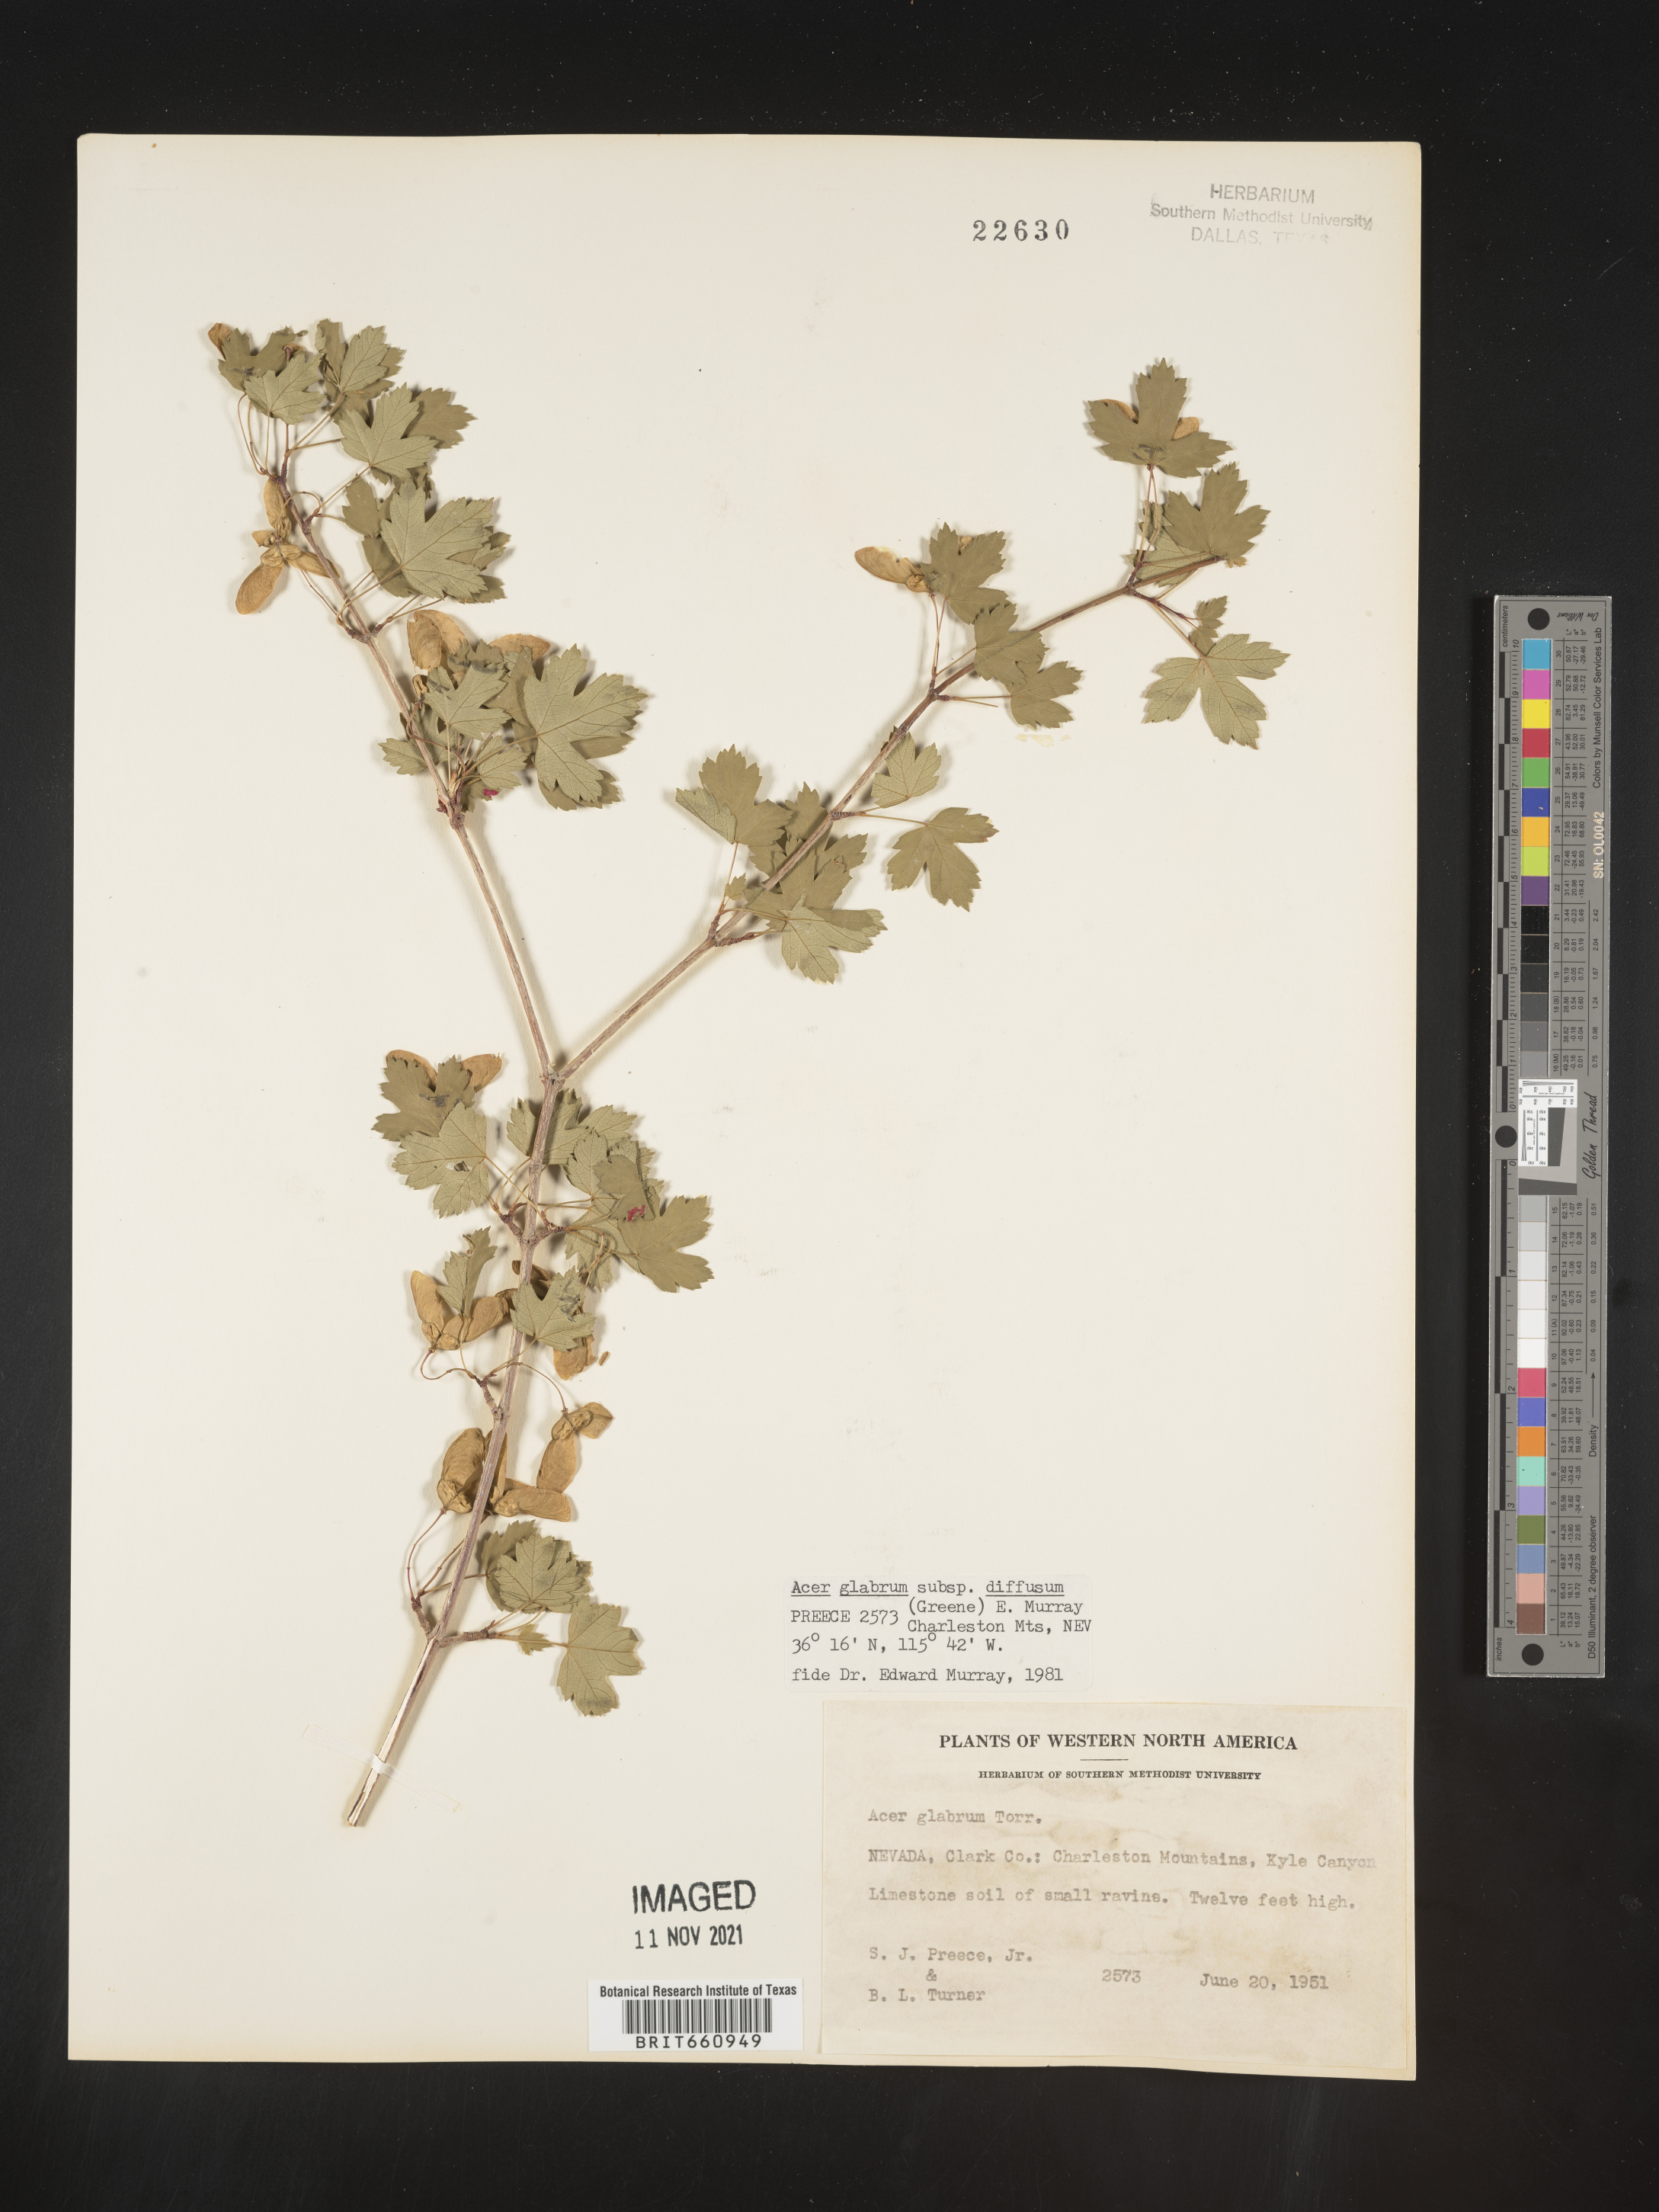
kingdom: Plantae
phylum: Tracheophyta
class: Magnoliopsida
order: Sapindales
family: Sapindaceae
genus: Acer
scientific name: Acer glabrum
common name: Rocky mountain maple
